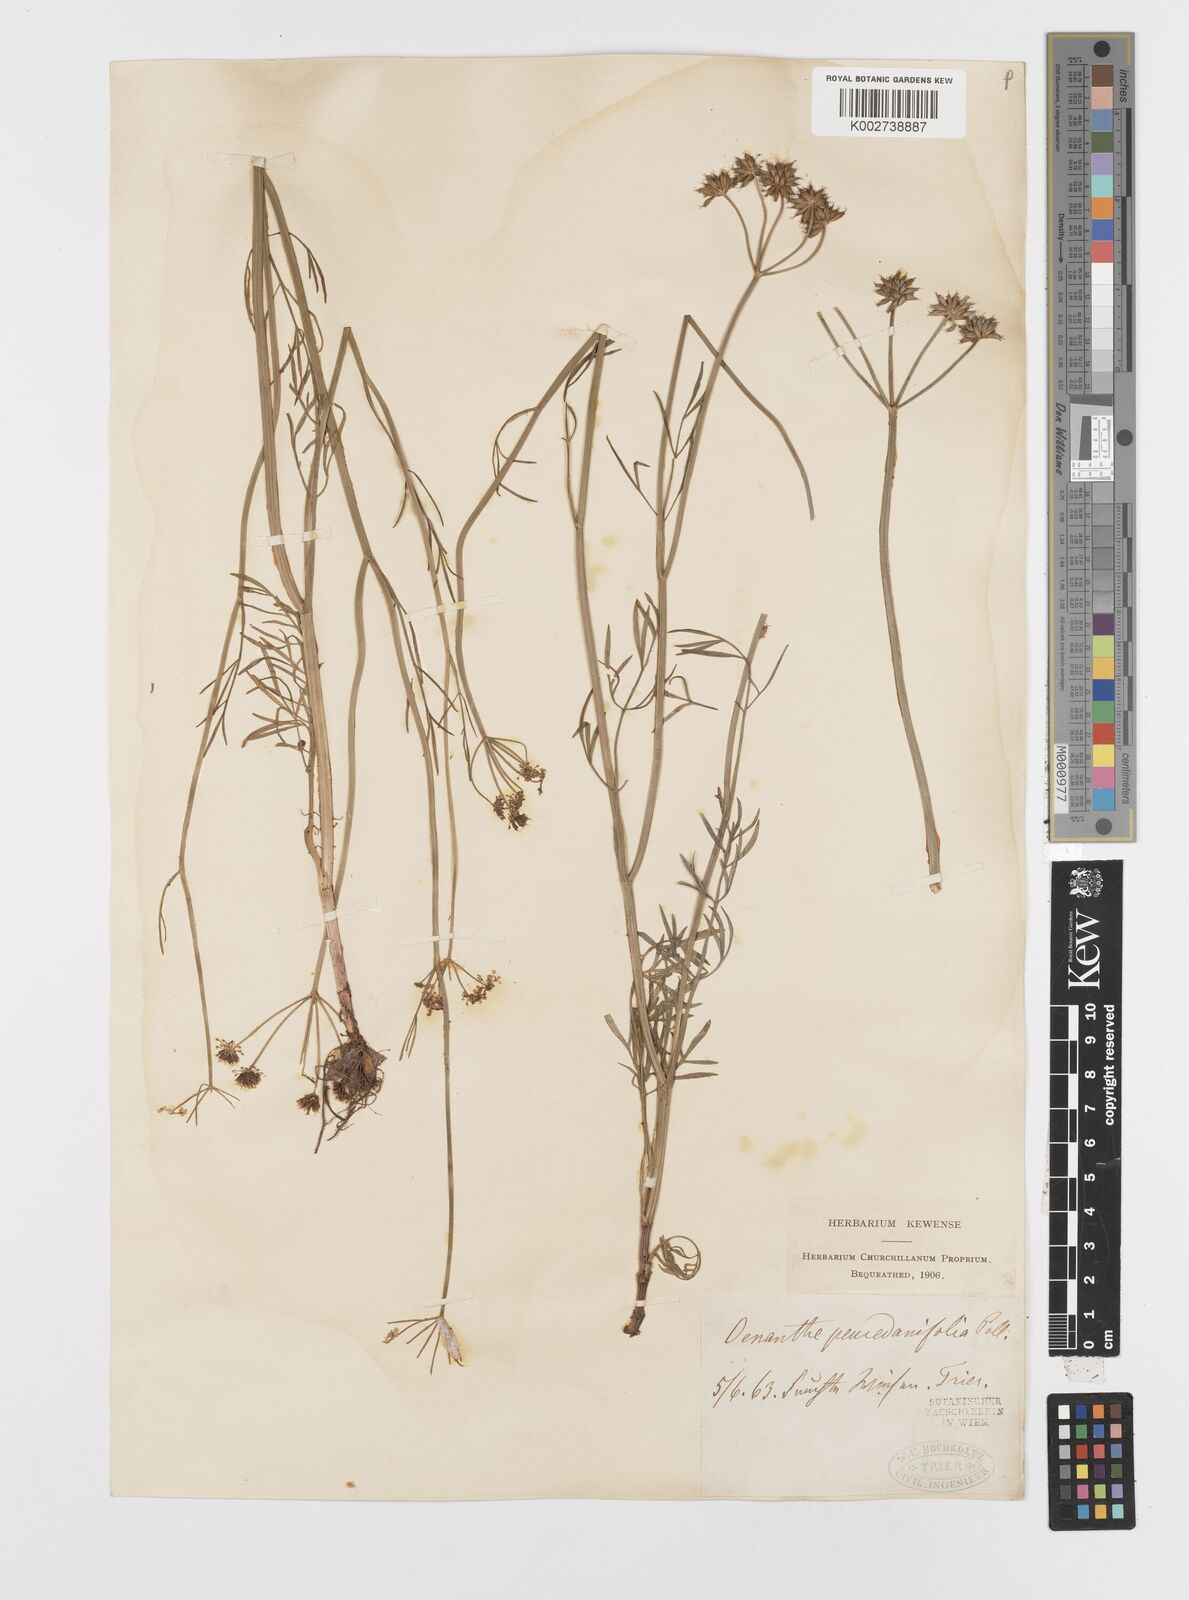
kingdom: Plantae
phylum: Tracheophyta
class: Magnoliopsida
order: Apiales
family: Apiaceae
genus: Oenanthe
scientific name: Oenanthe peucedanifolia
